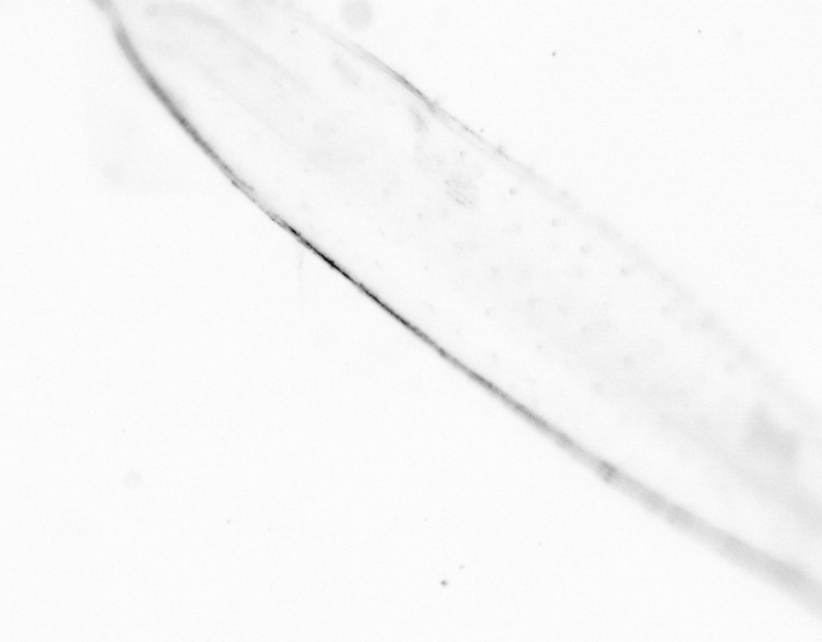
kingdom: Animalia
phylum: Chaetognatha
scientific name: Chaetognatha
